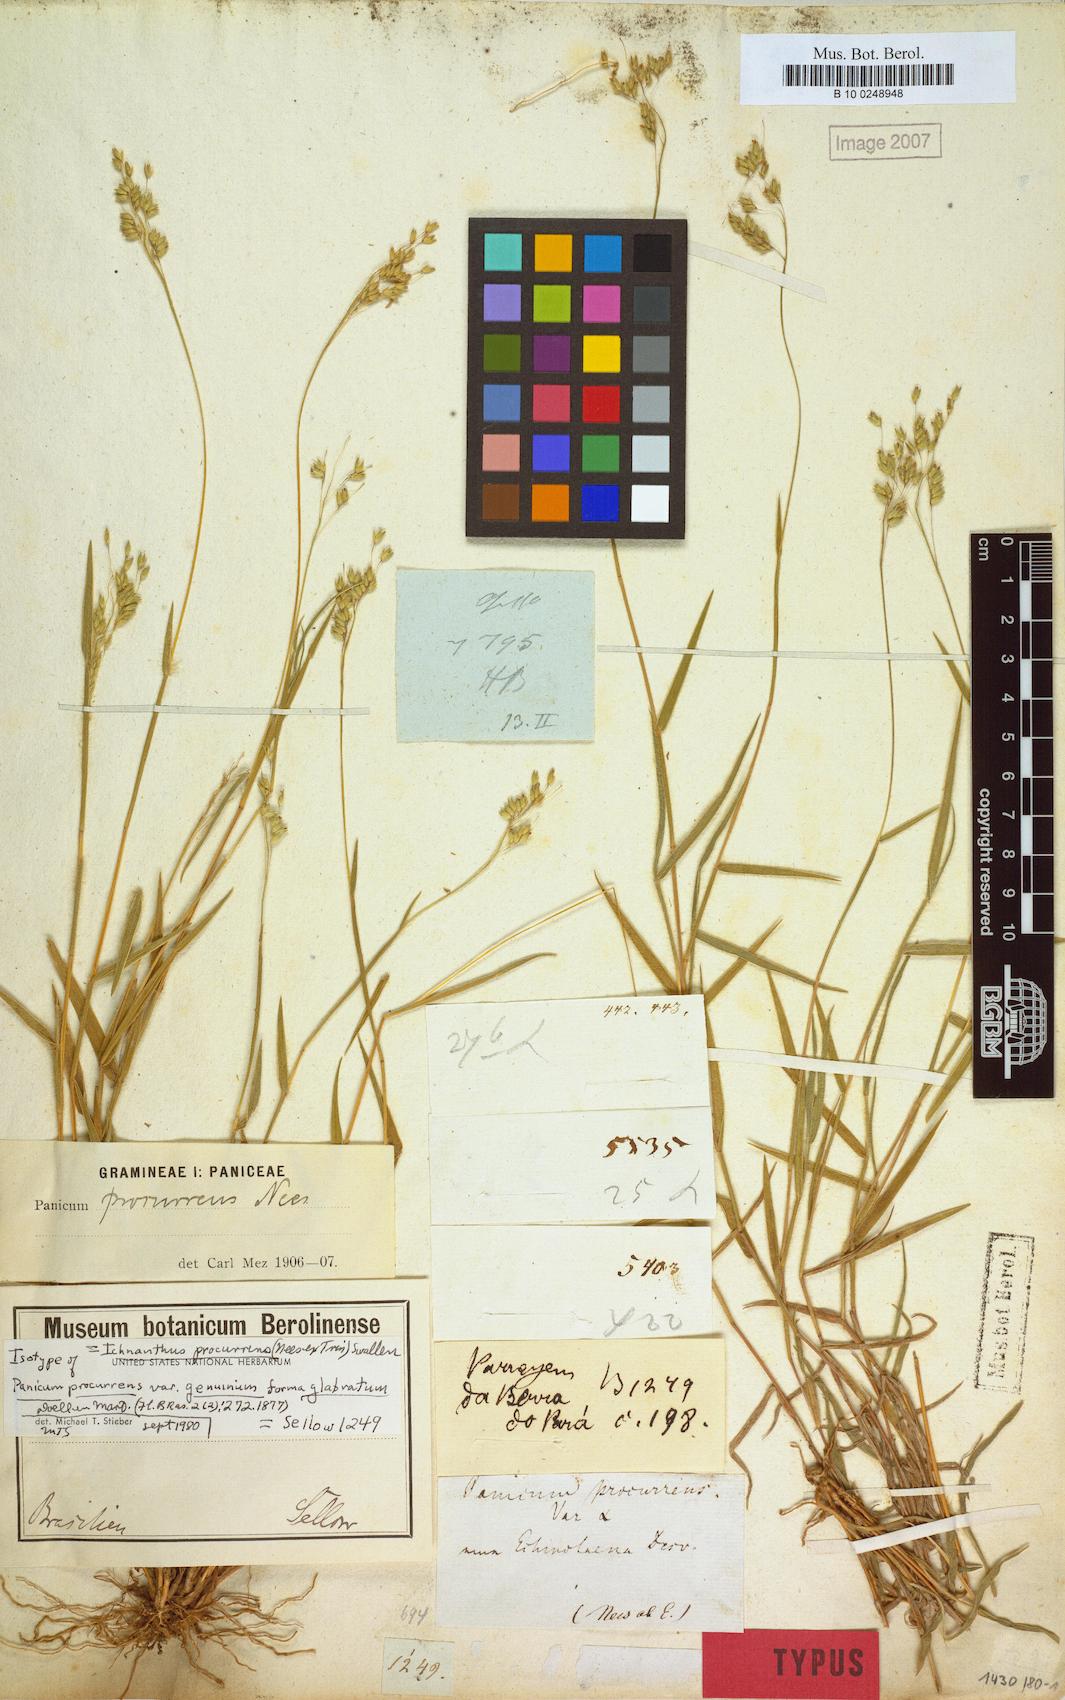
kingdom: Plantae
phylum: Tracheophyta
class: Liliopsida
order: Poales
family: Poaceae
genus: Oedochloa
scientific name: Oedochloa procurrens
